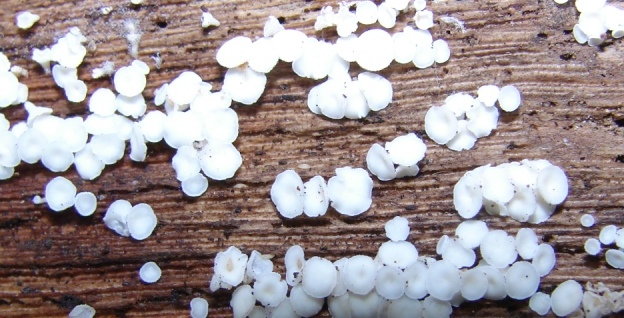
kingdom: Fungi
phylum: Ascomycota
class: Leotiomycetes
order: Helotiales
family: Lachnaceae
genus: Dasyscyphella
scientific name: Dasyscyphella nivea
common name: hvid frynseskive
